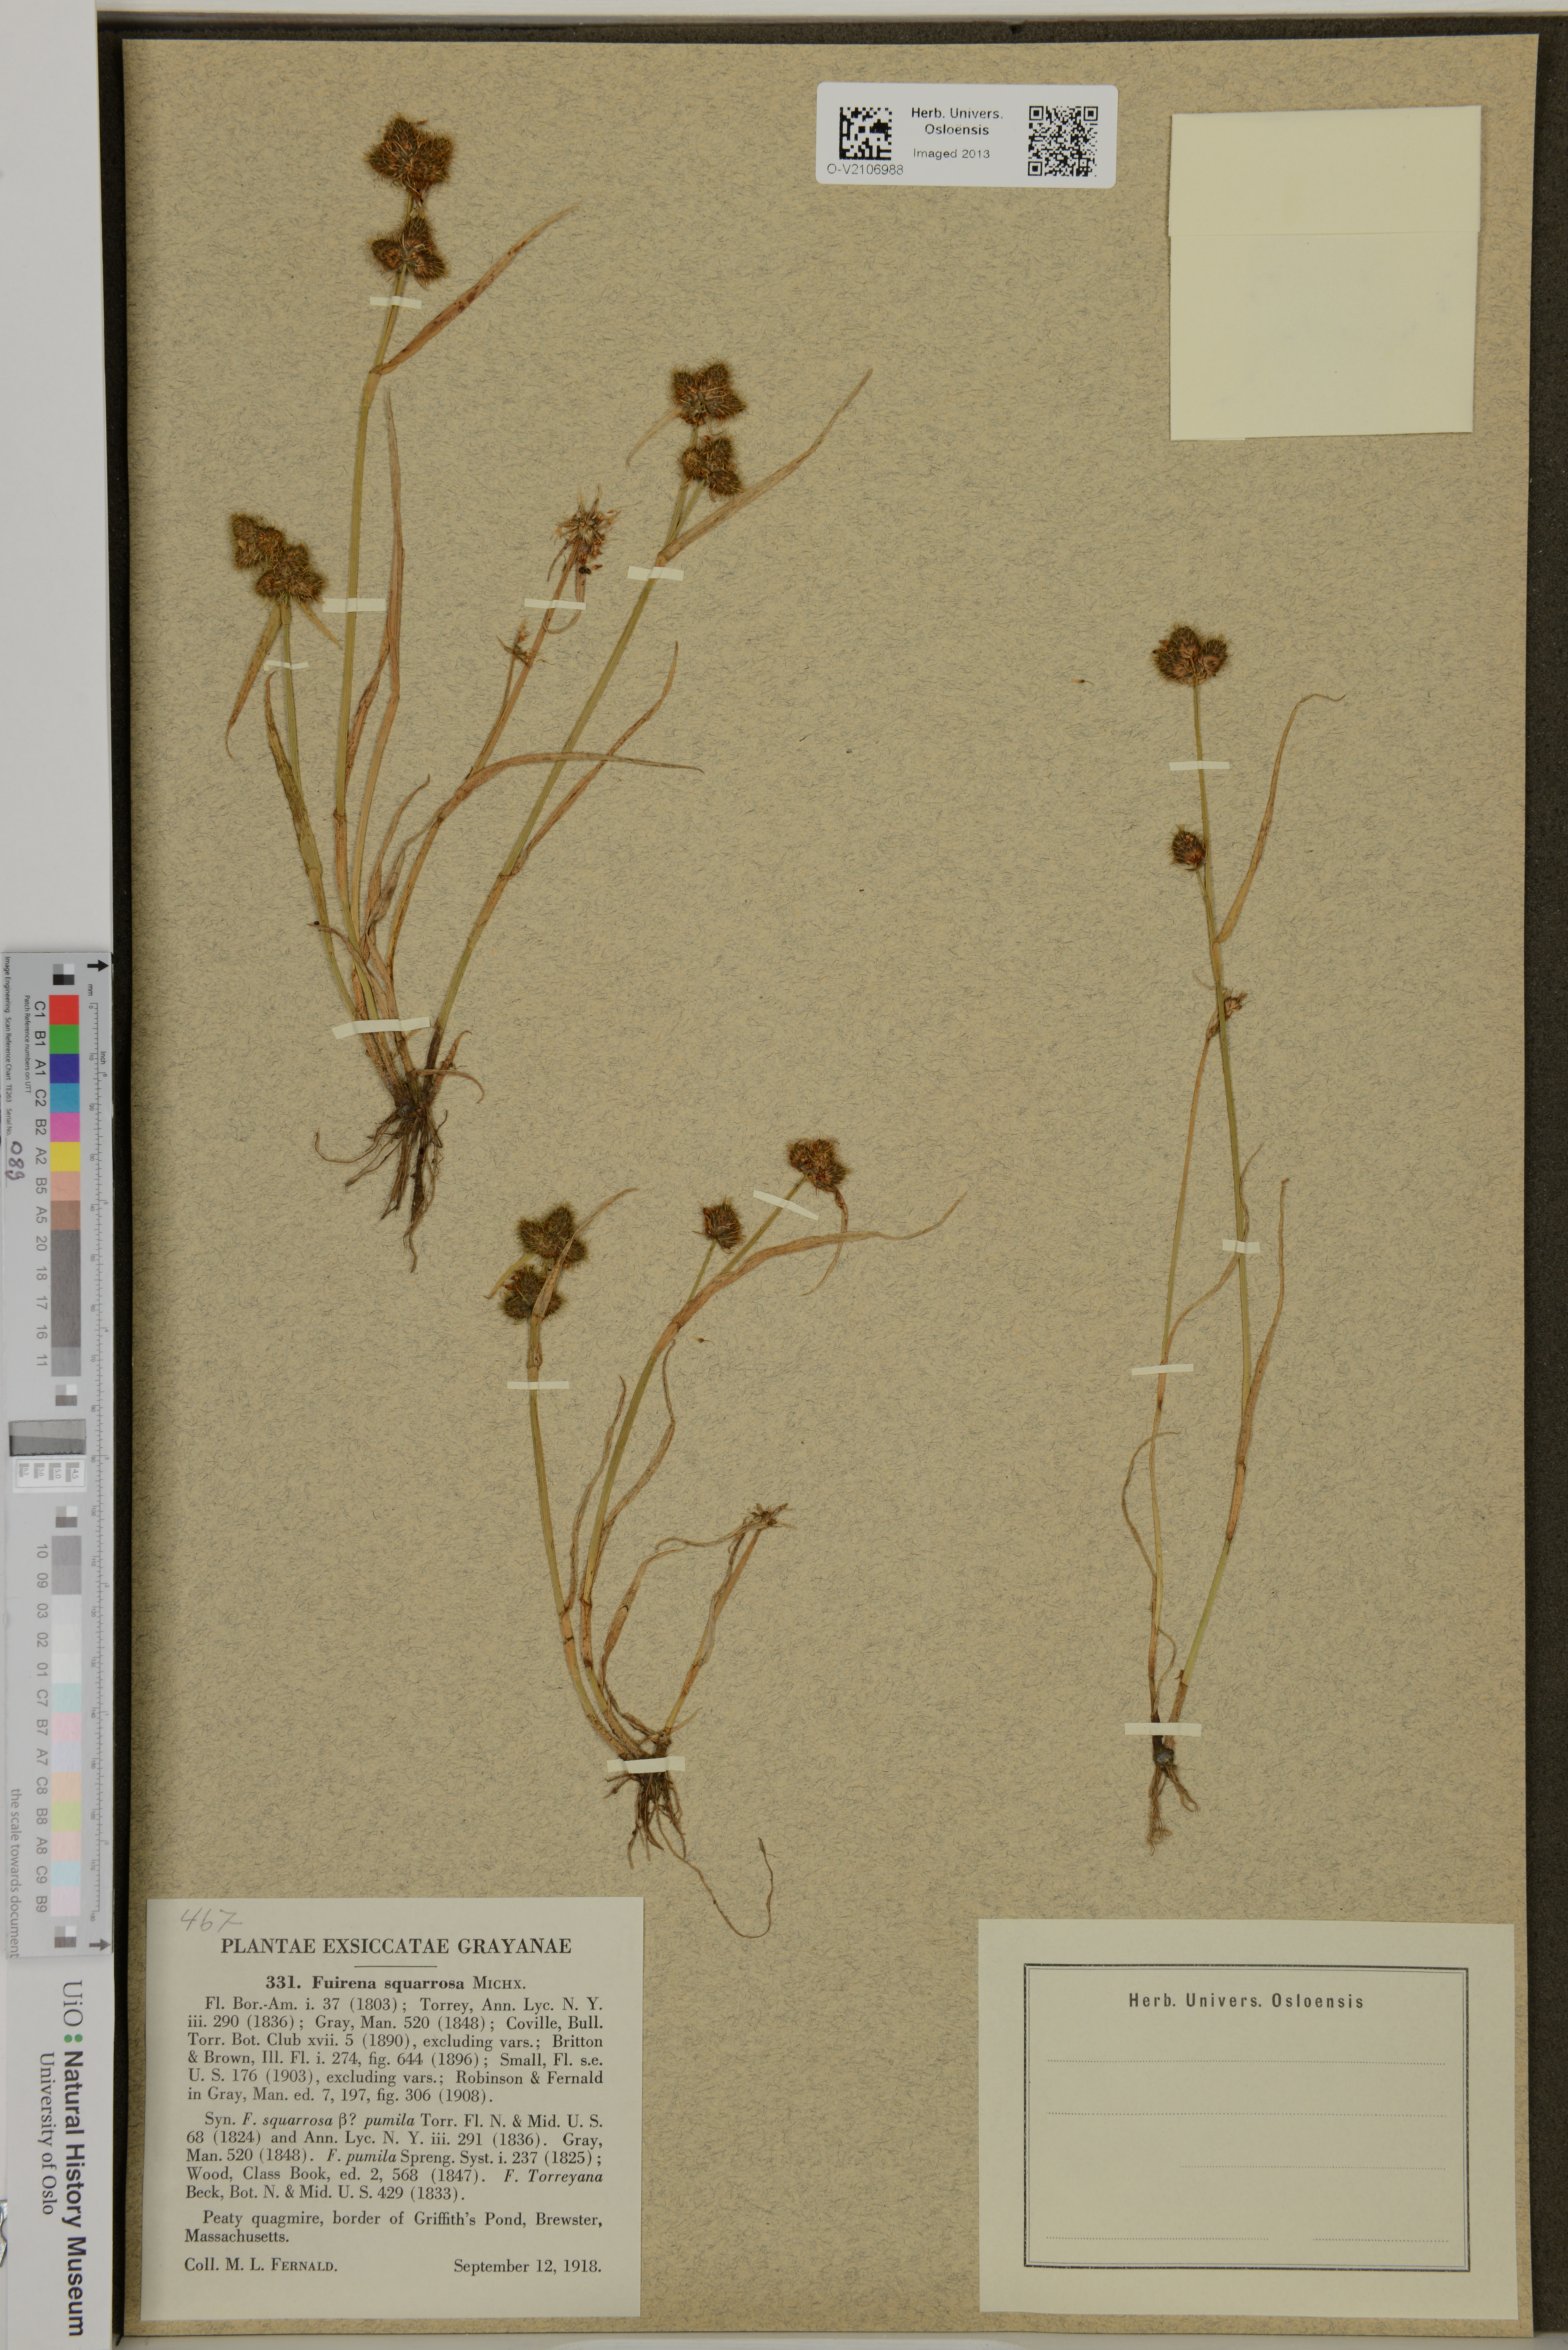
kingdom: Plantae
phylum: Tracheophyta
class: Liliopsida
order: Poales
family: Cyperaceae
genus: Fuirena
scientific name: Fuirena squarrosa
